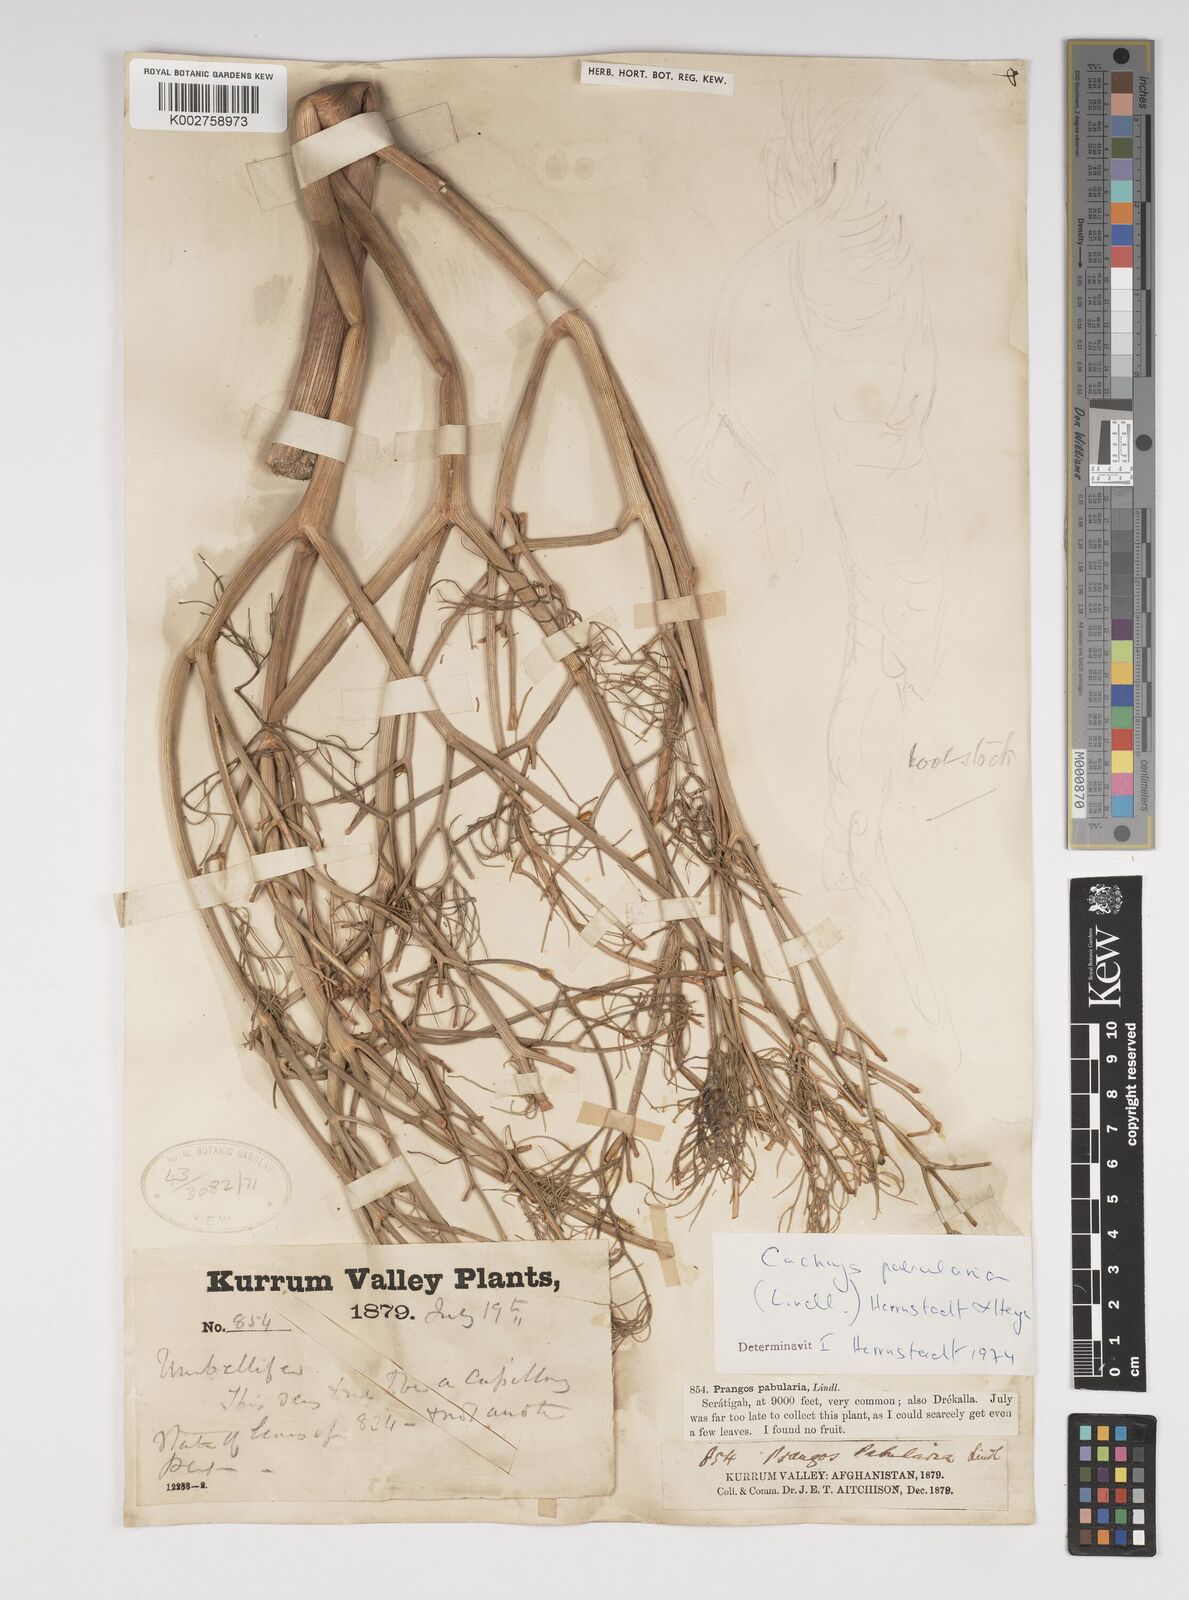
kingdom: Plantae
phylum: Tracheophyta
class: Magnoliopsida
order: Apiales
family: Apiaceae
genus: Prangos
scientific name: Prangos pabularia
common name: Yugan
